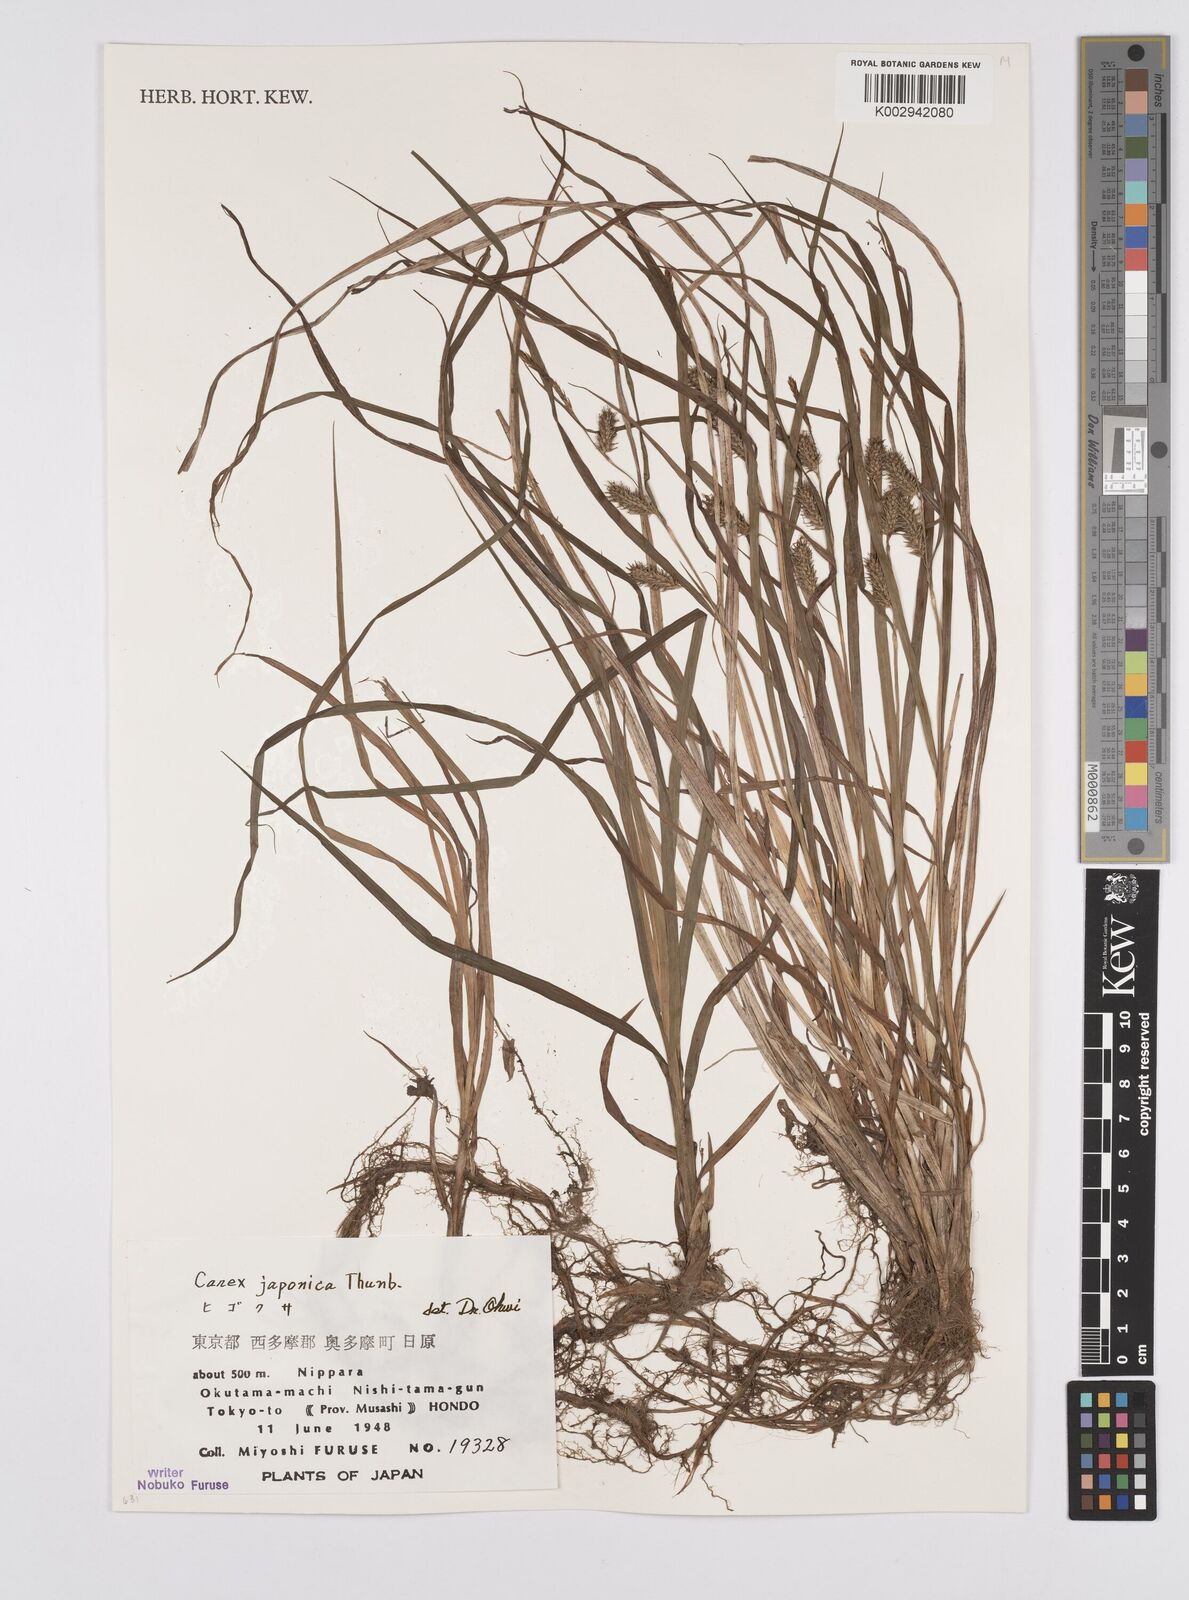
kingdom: Plantae
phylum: Tracheophyta
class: Liliopsida
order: Poales
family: Cyperaceae
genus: Carex
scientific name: Carex japonica
